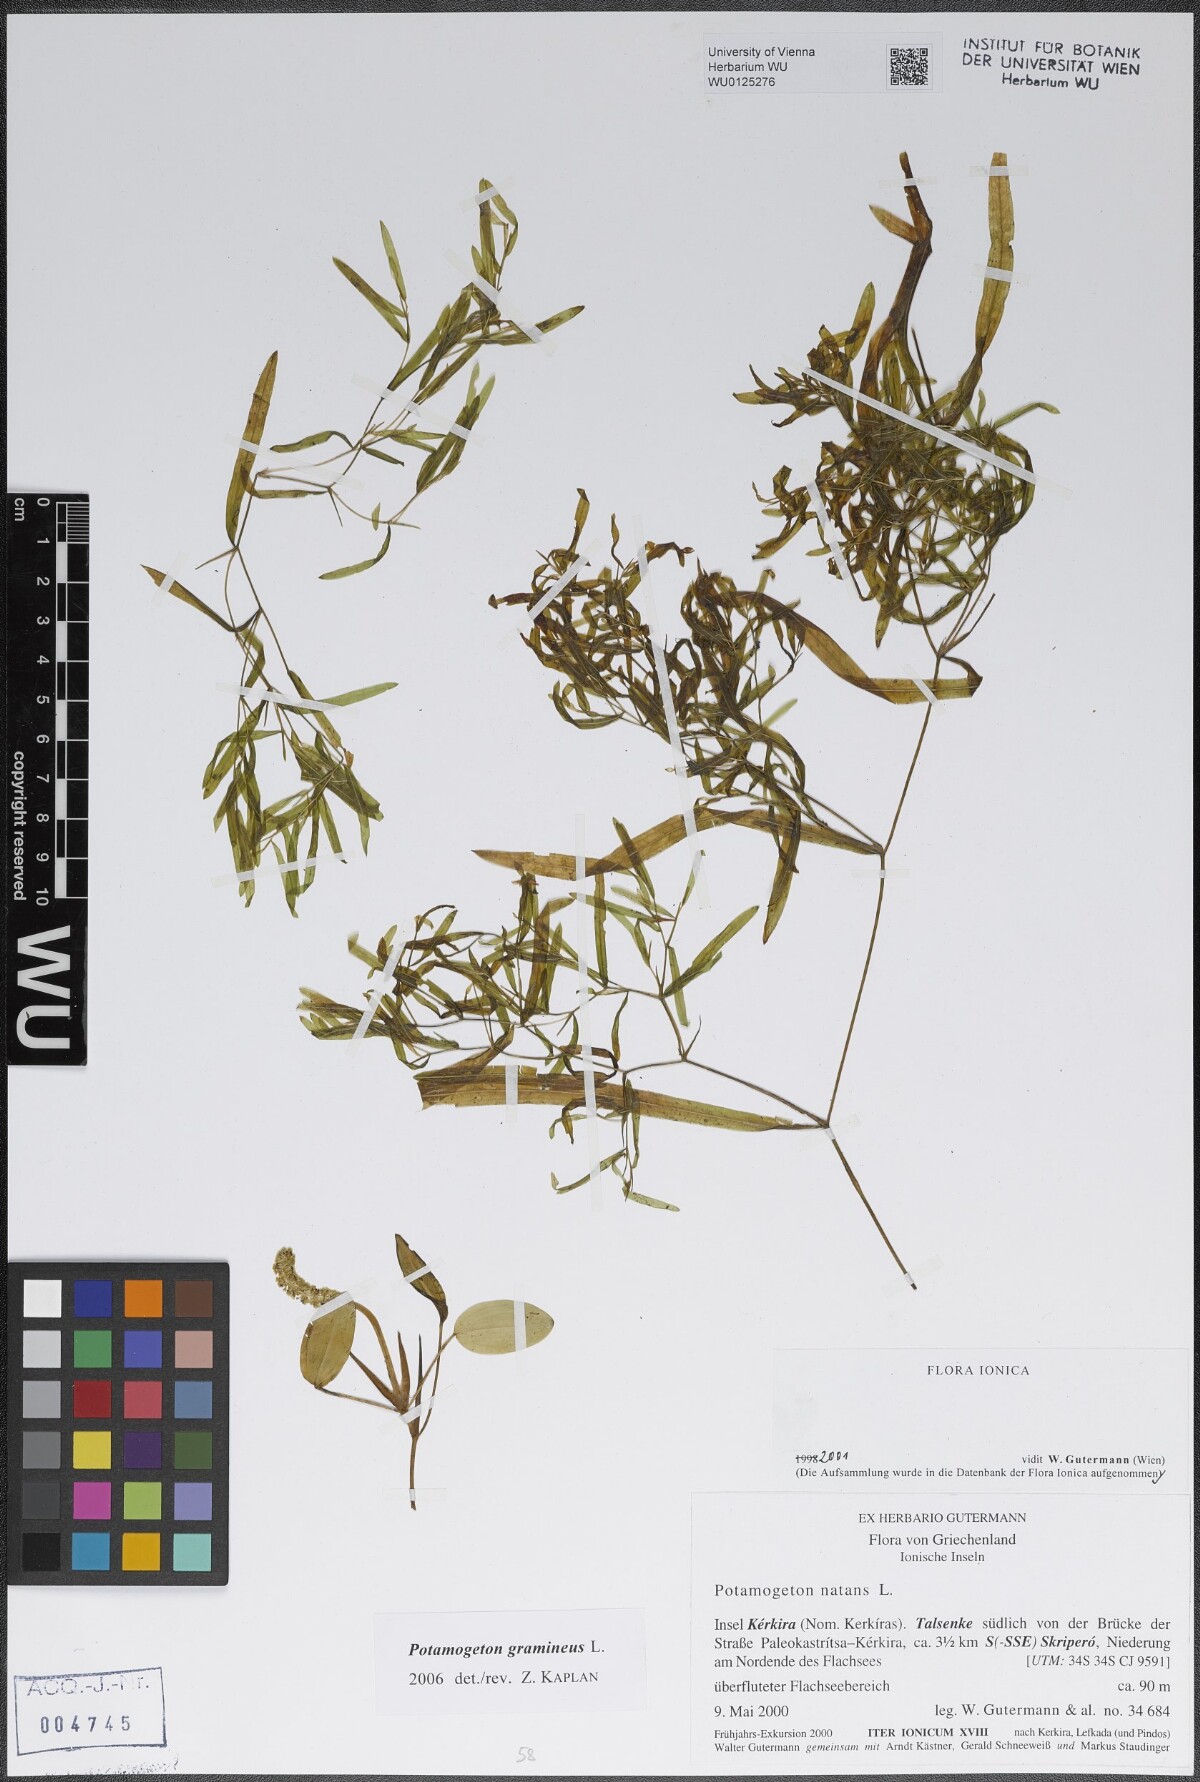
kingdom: Plantae
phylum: Tracheophyta
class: Liliopsida
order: Alismatales
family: Potamogetonaceae
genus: Potamogeton
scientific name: Potamogeton gramineus
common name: Various-leaved pondweed
